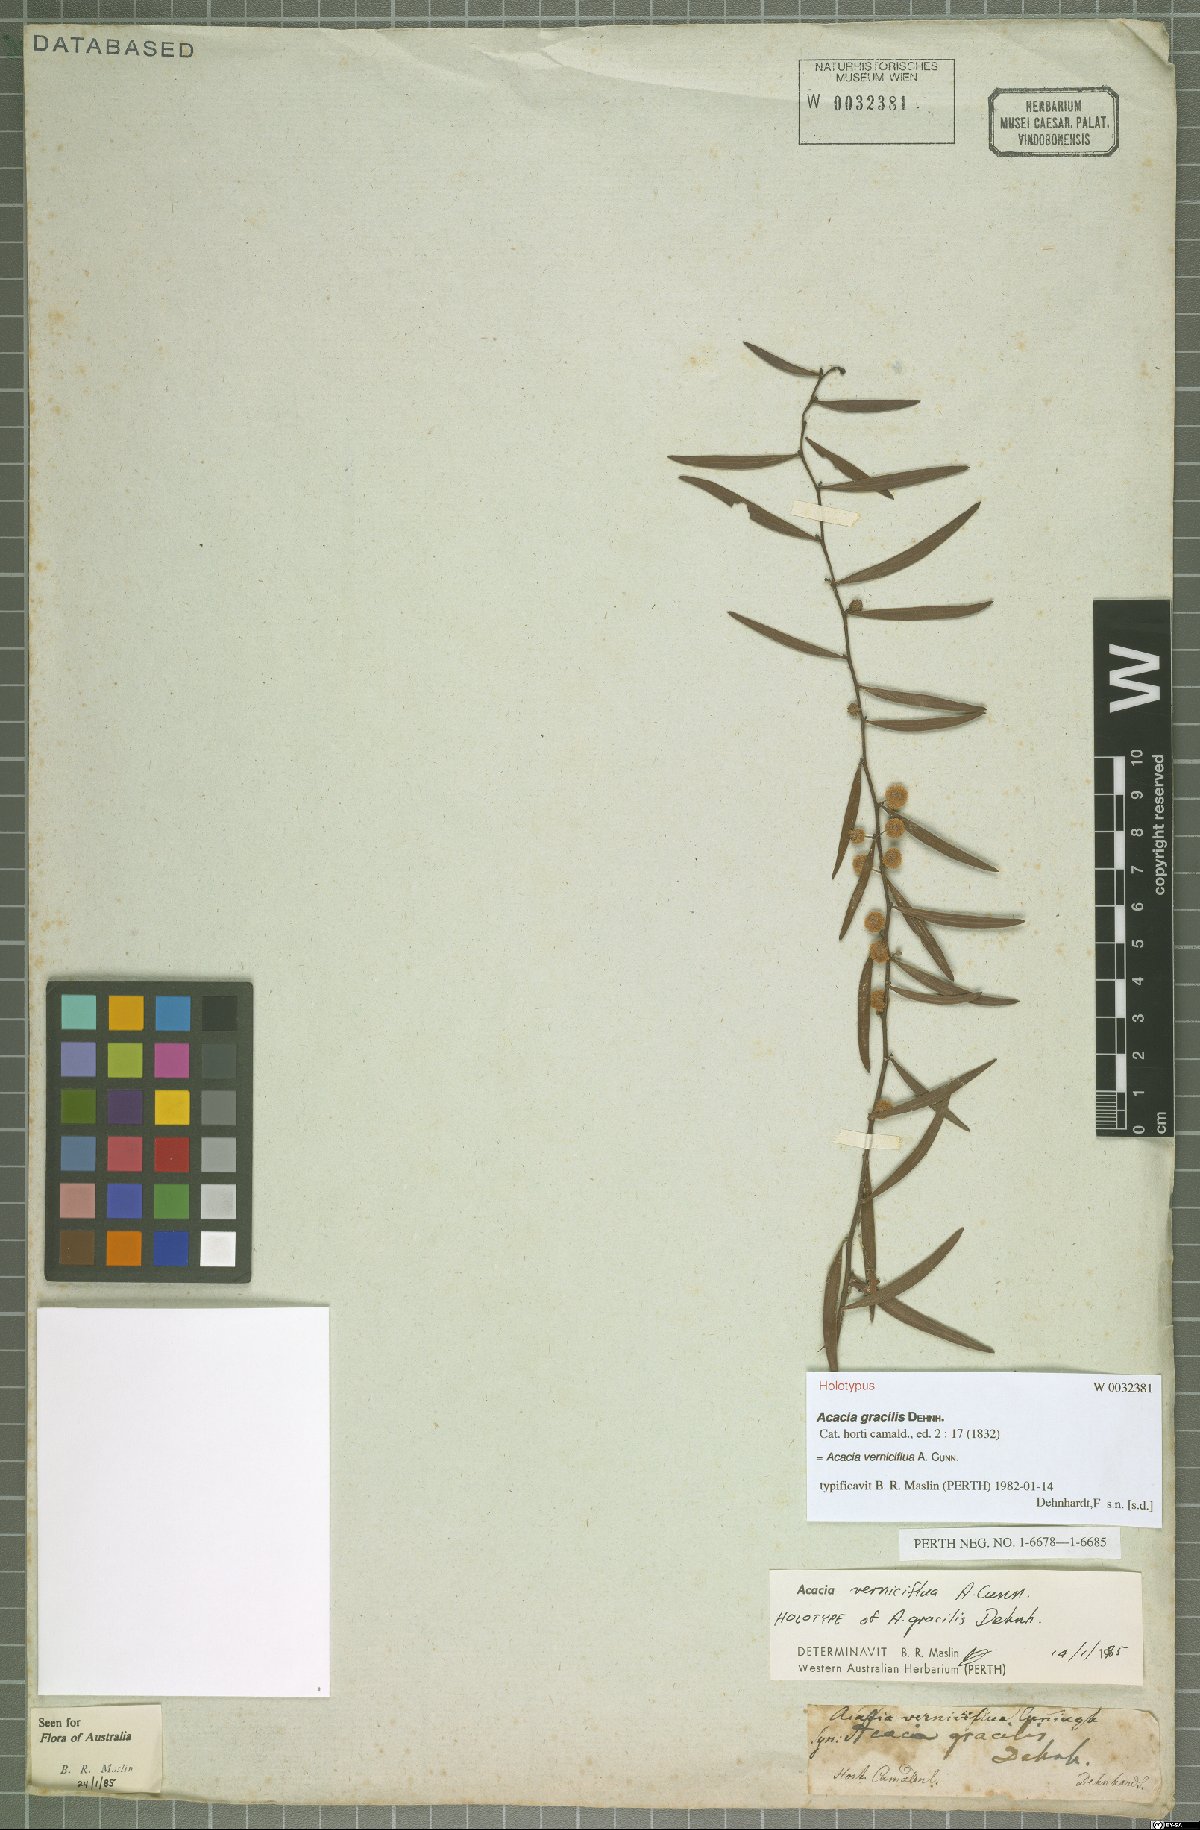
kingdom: Plantae
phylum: Tracheophyta
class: Magnoliopsida
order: Fabales
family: Fabaceae
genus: Acacia
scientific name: Acacia verniciflua
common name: Varnish wattle
